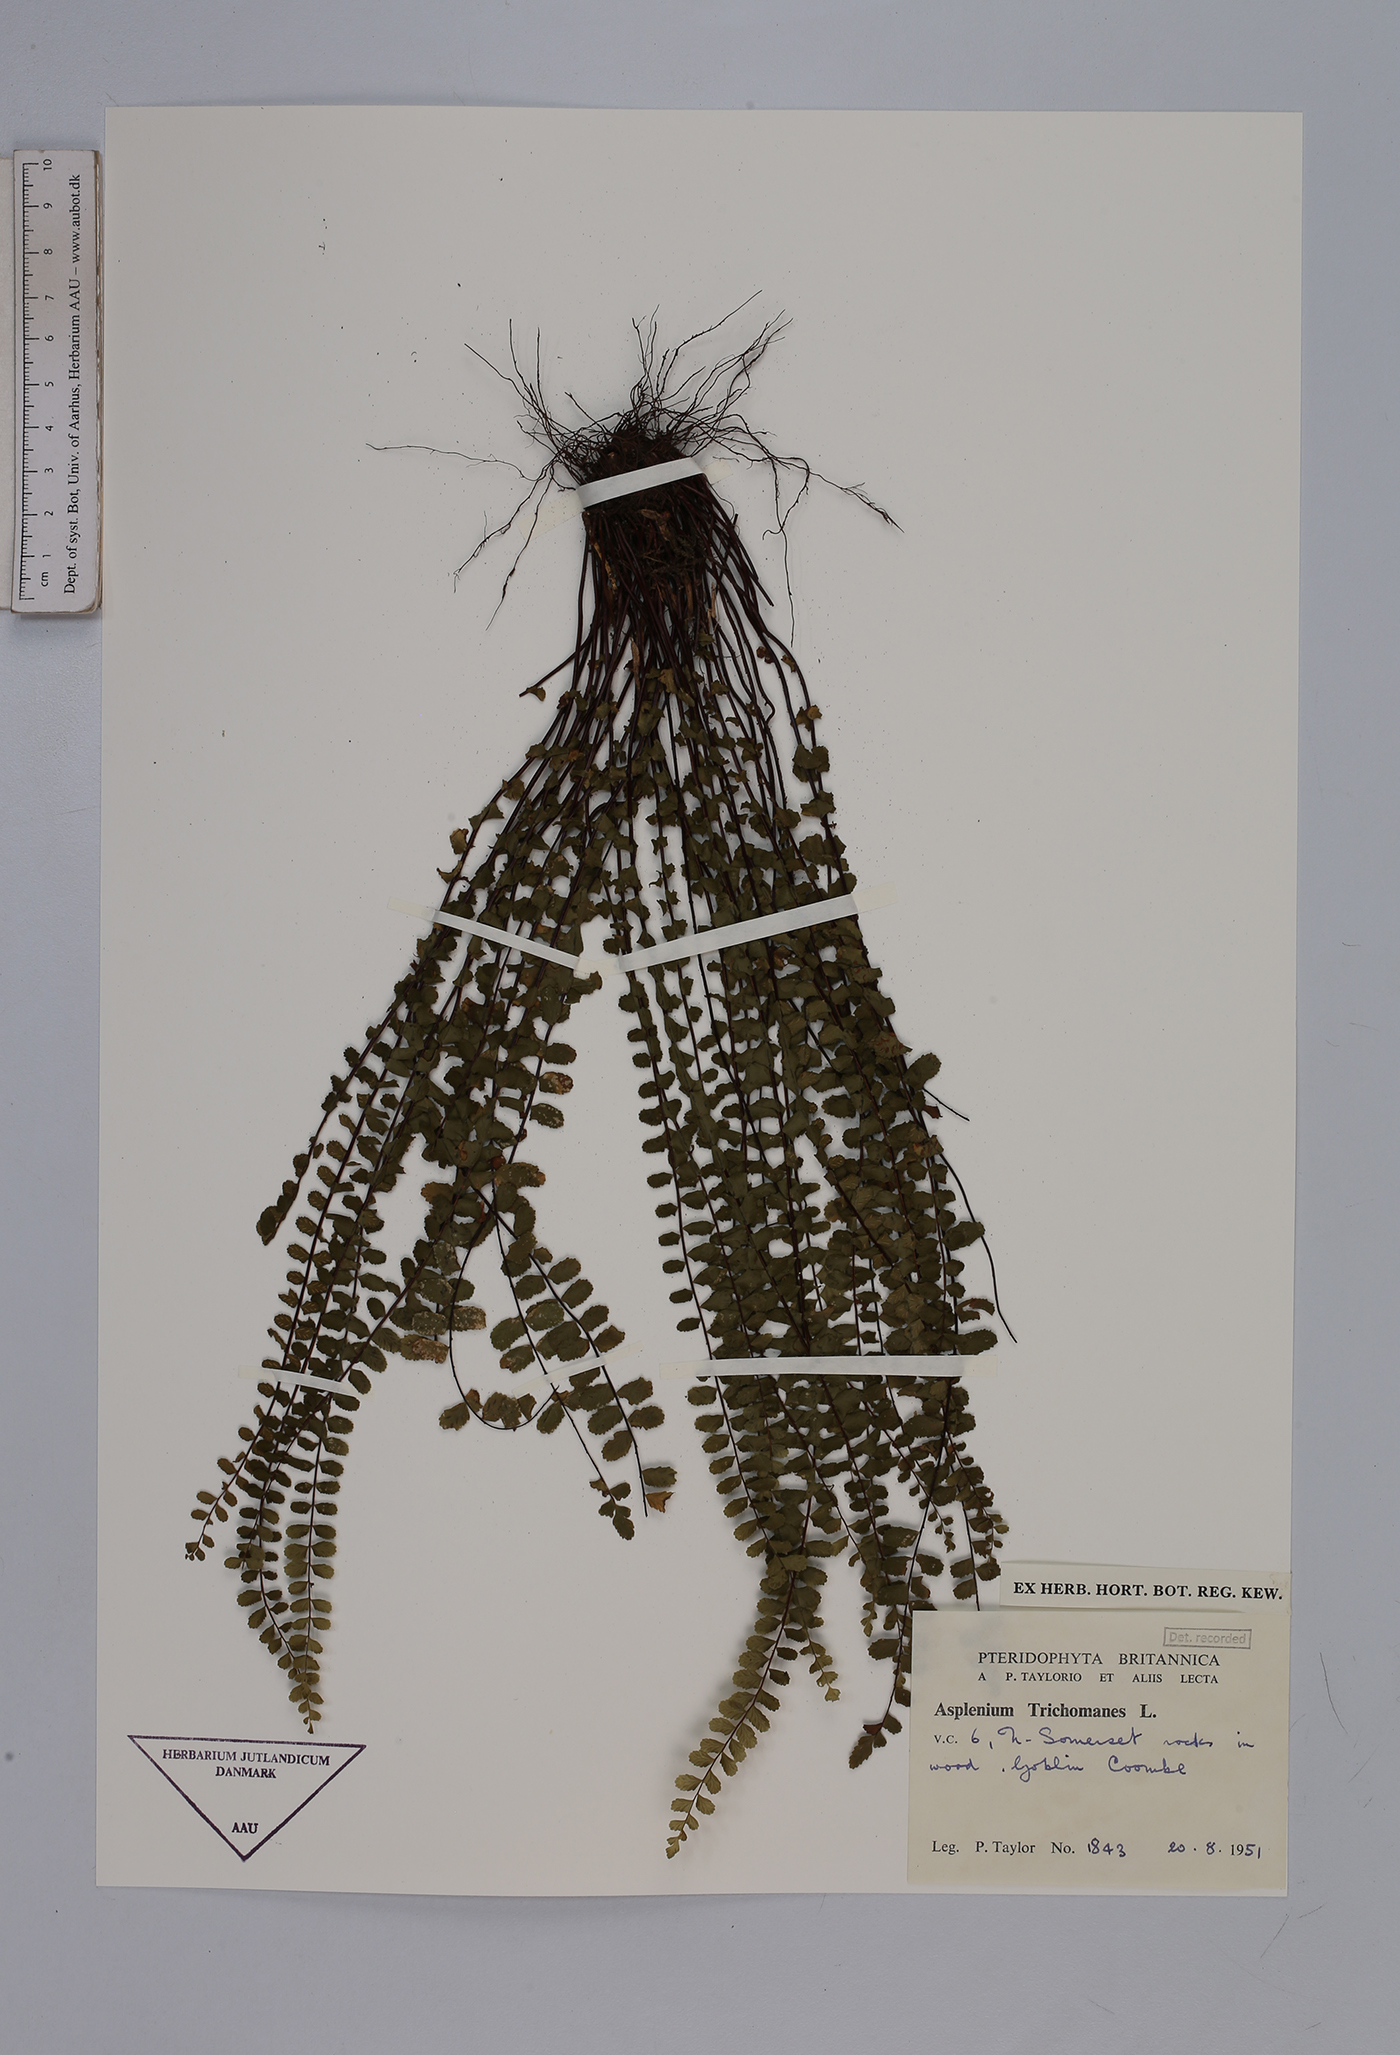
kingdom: Plantae
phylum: Tracheophyta
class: Polypodiopsida
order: Polypodiales
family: Aspleniaceae
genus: Asplenium
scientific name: Asplenium trichomanes
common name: Maidenhair spleenwort
